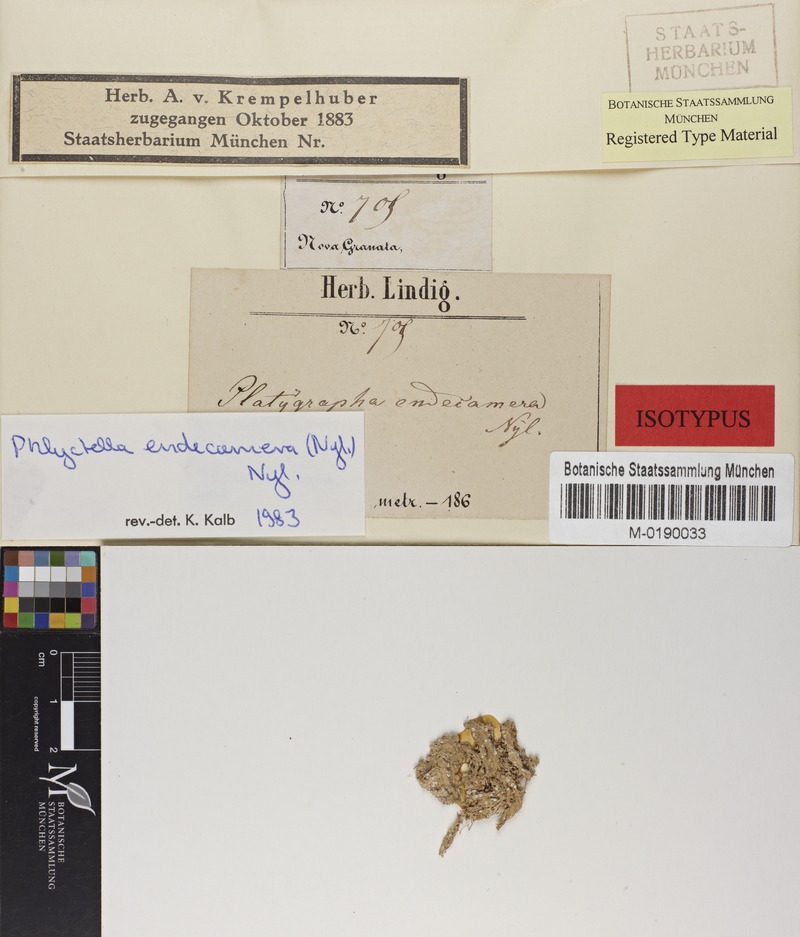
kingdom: Fungi
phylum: Ascomycota
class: Lecanoromycetes
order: Ostropales
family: Phlyctidaceae
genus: Phlyctis
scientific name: Phlyctis endecamera
